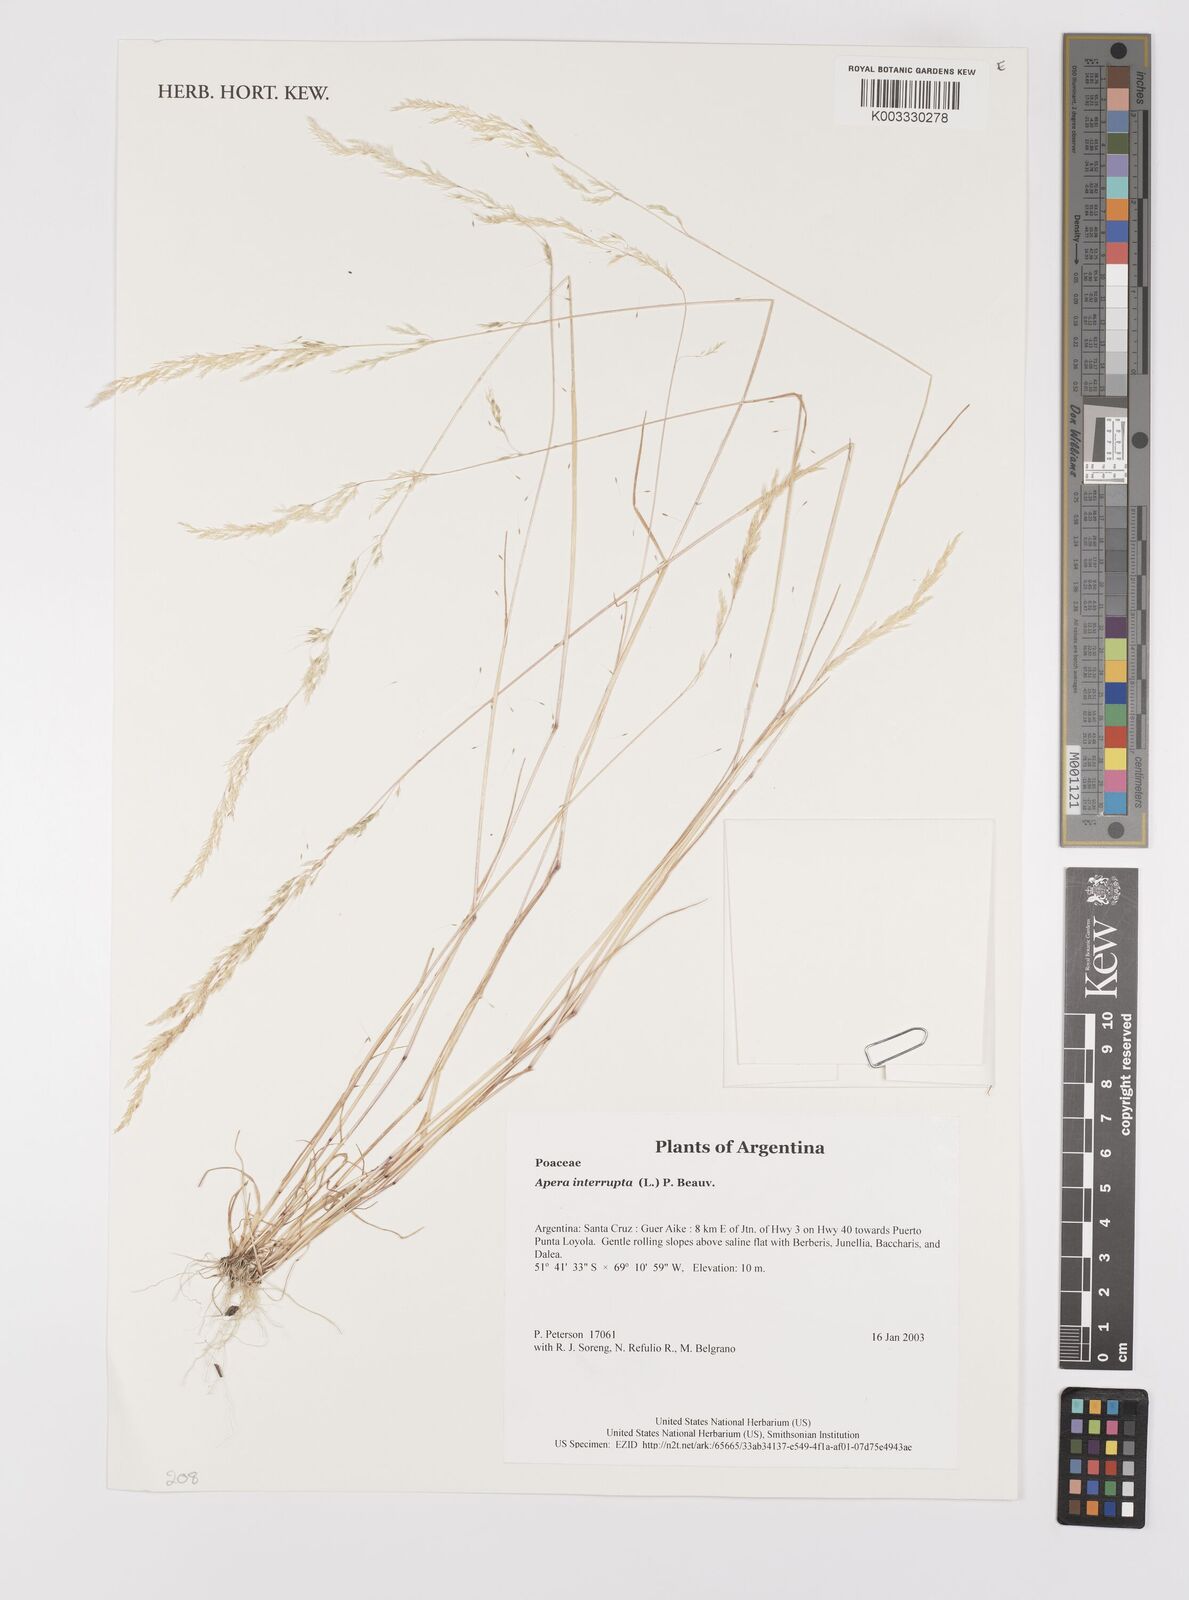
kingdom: Plantae
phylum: Tracheophyta
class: Liliopsida
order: Poales
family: Poaceae
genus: Apera
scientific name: Apera interrupta
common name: Dense silky-bent
